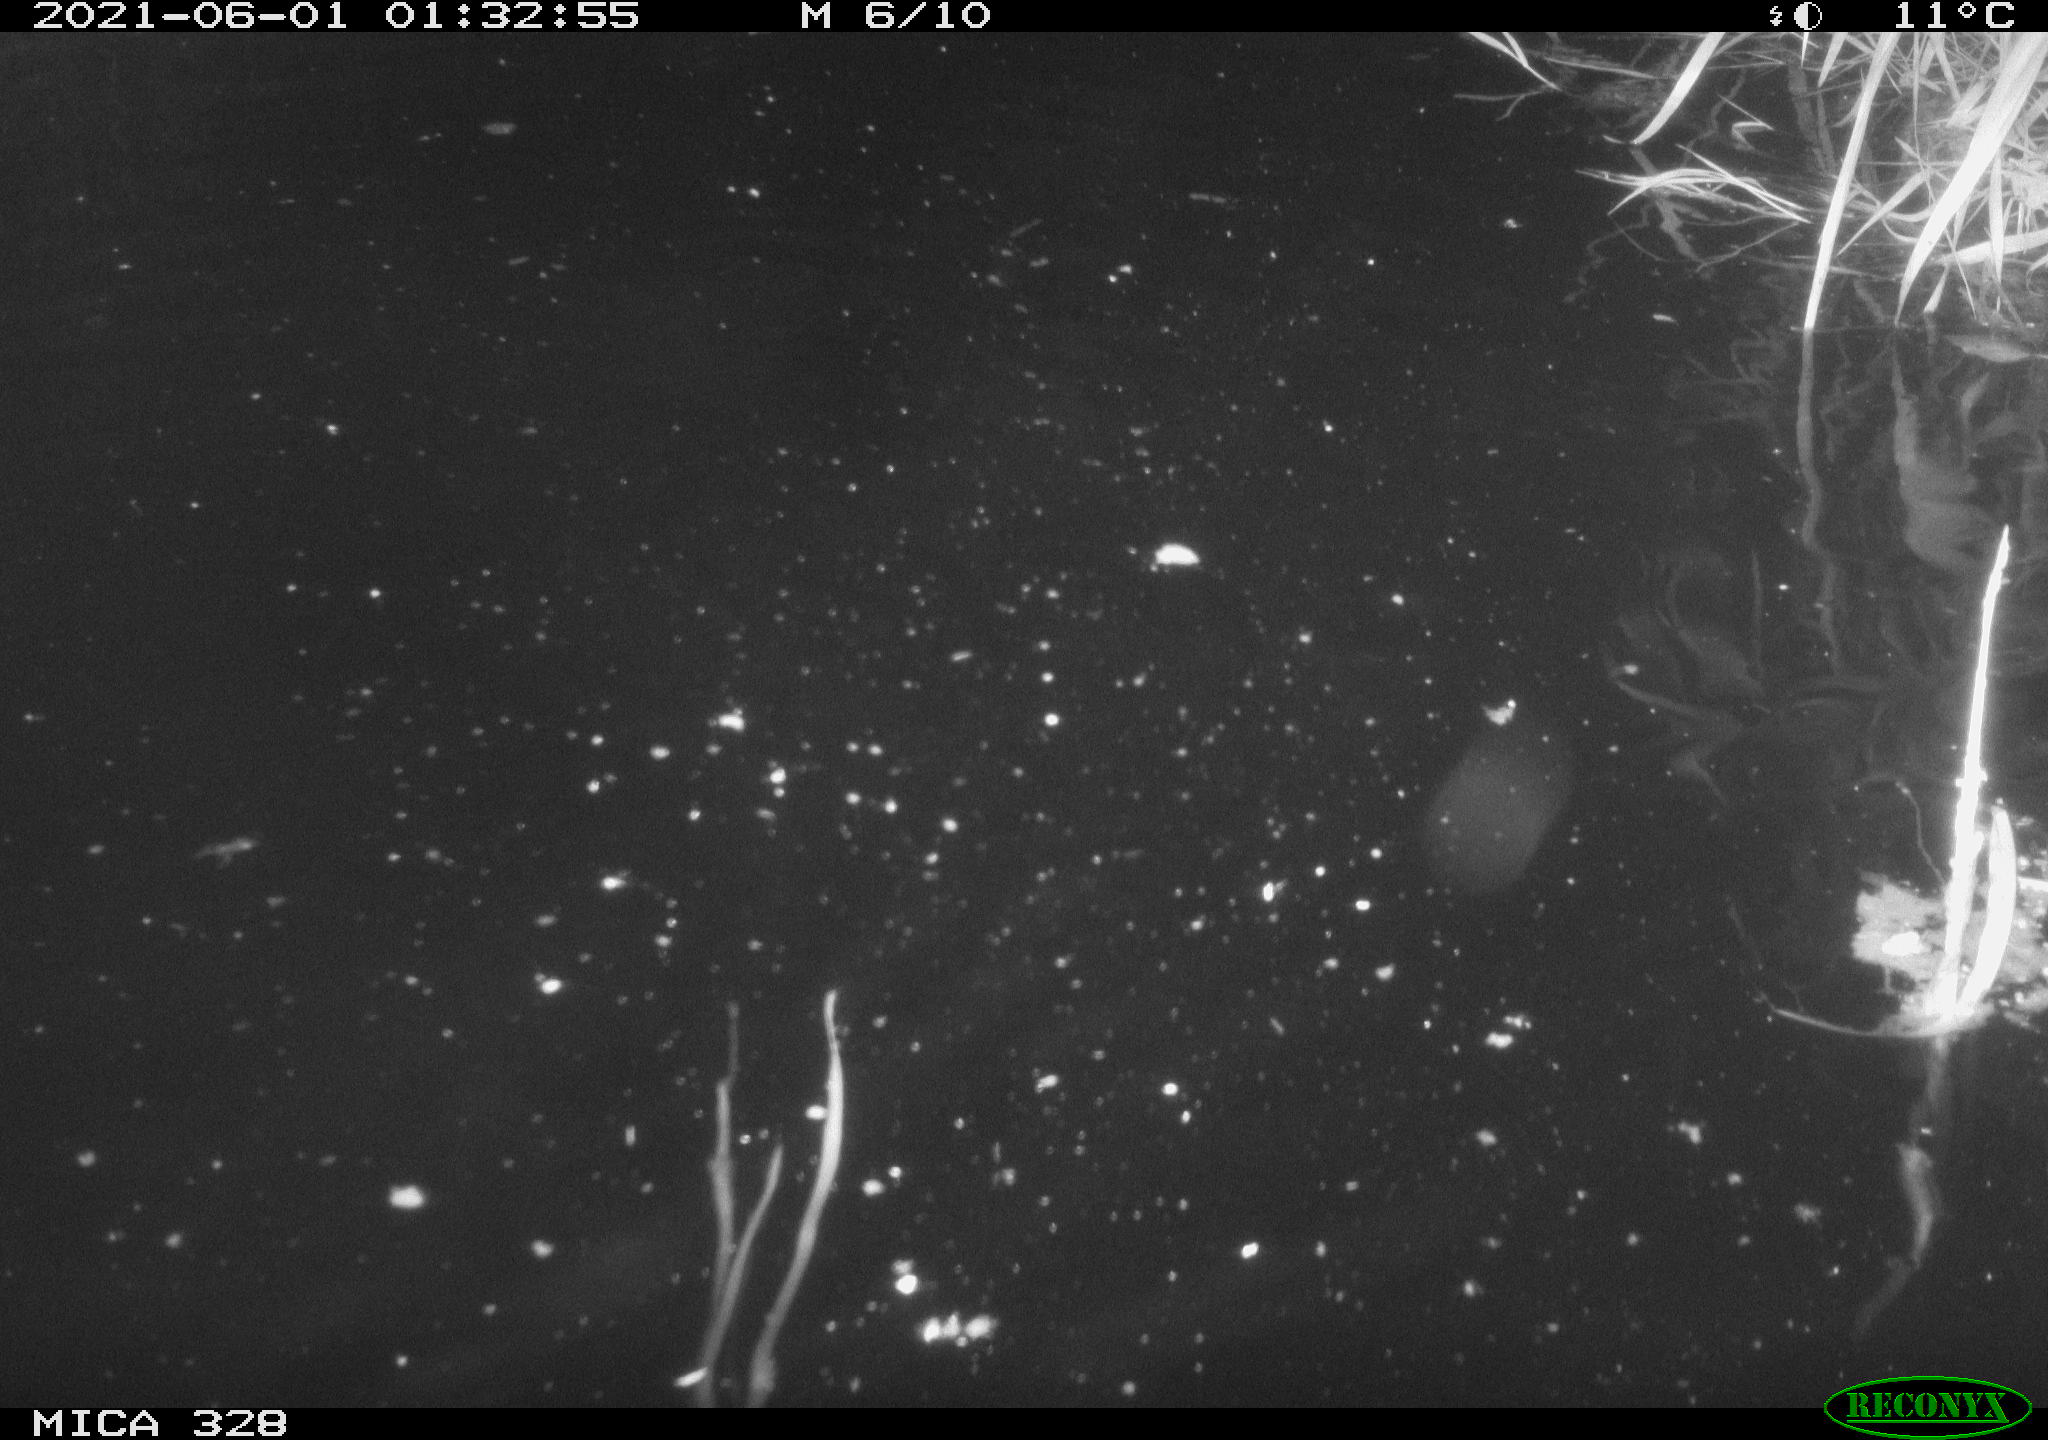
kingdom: Animalia
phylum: Chordata
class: Mammalia
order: Rodentia
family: Cricetidae
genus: Ondatra
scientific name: Ondatra zibethicus
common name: Muskrat
